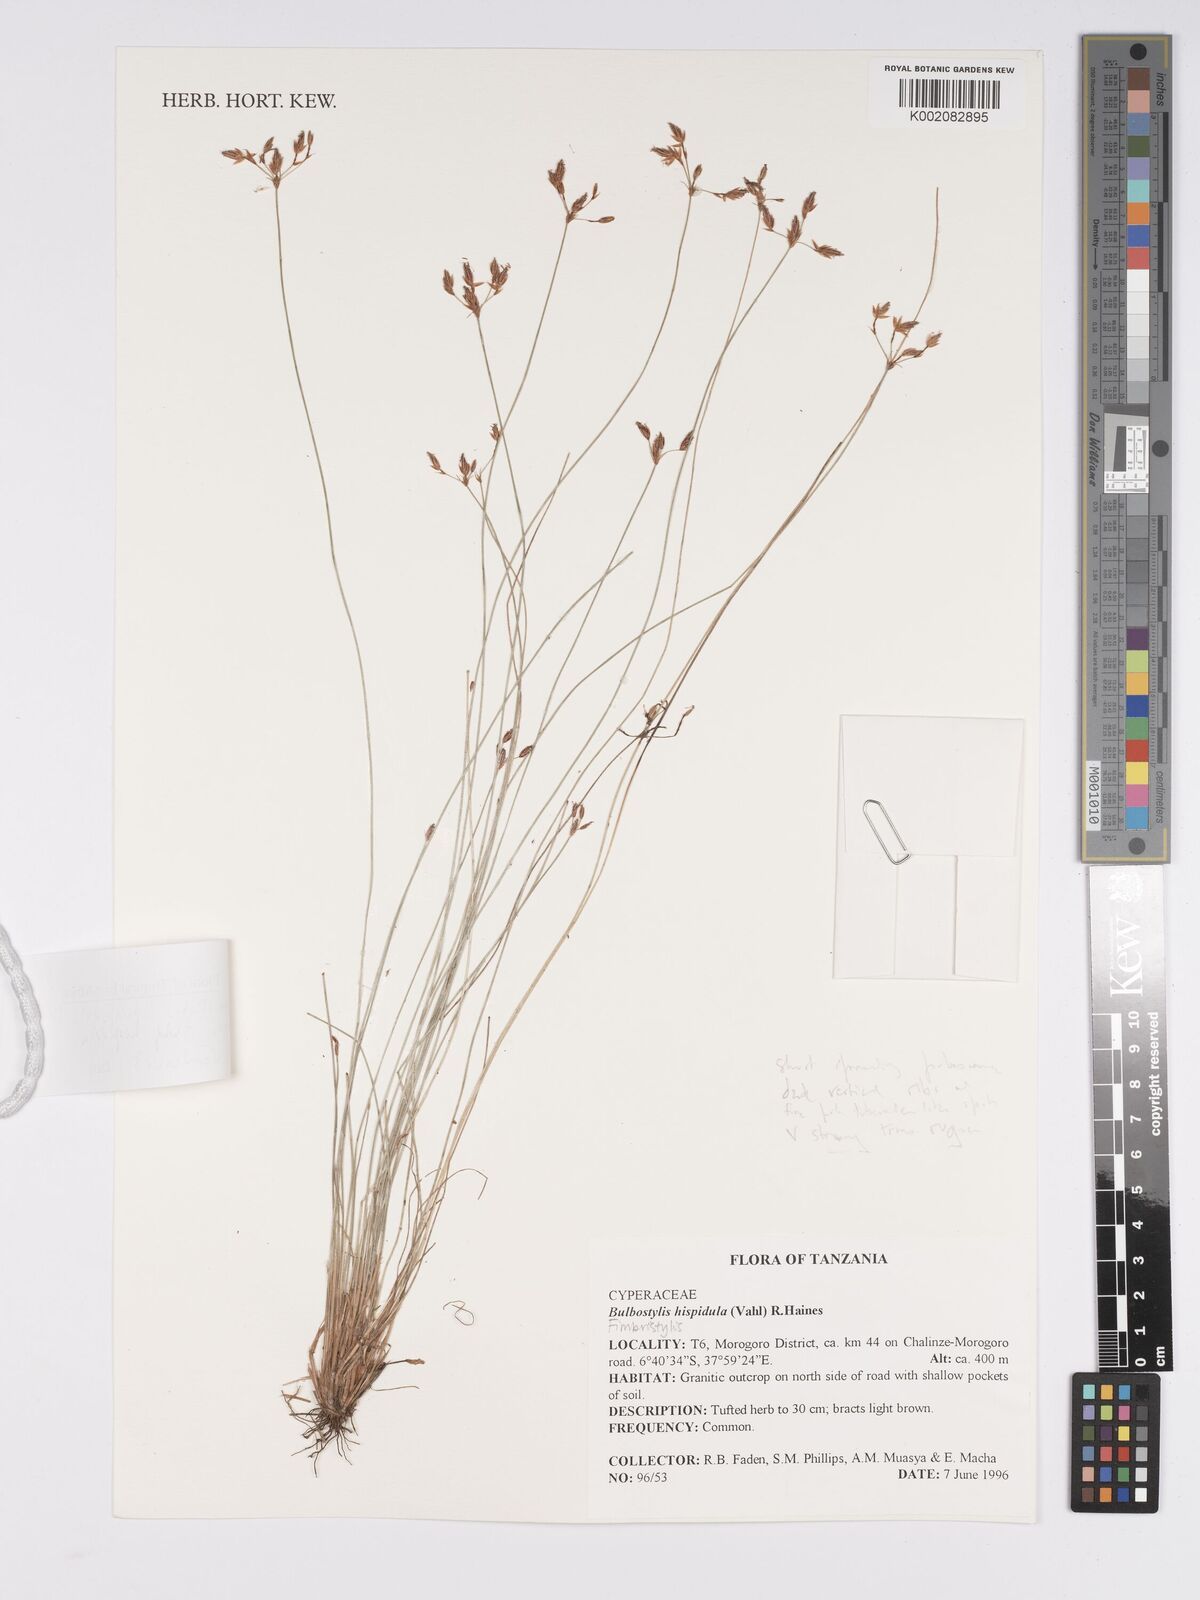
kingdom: Plantae
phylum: Tracheophyta
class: Liliopsida
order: Poales
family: Cyperaceae
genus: Bulbostylis
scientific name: Bulbostylis hispidula
